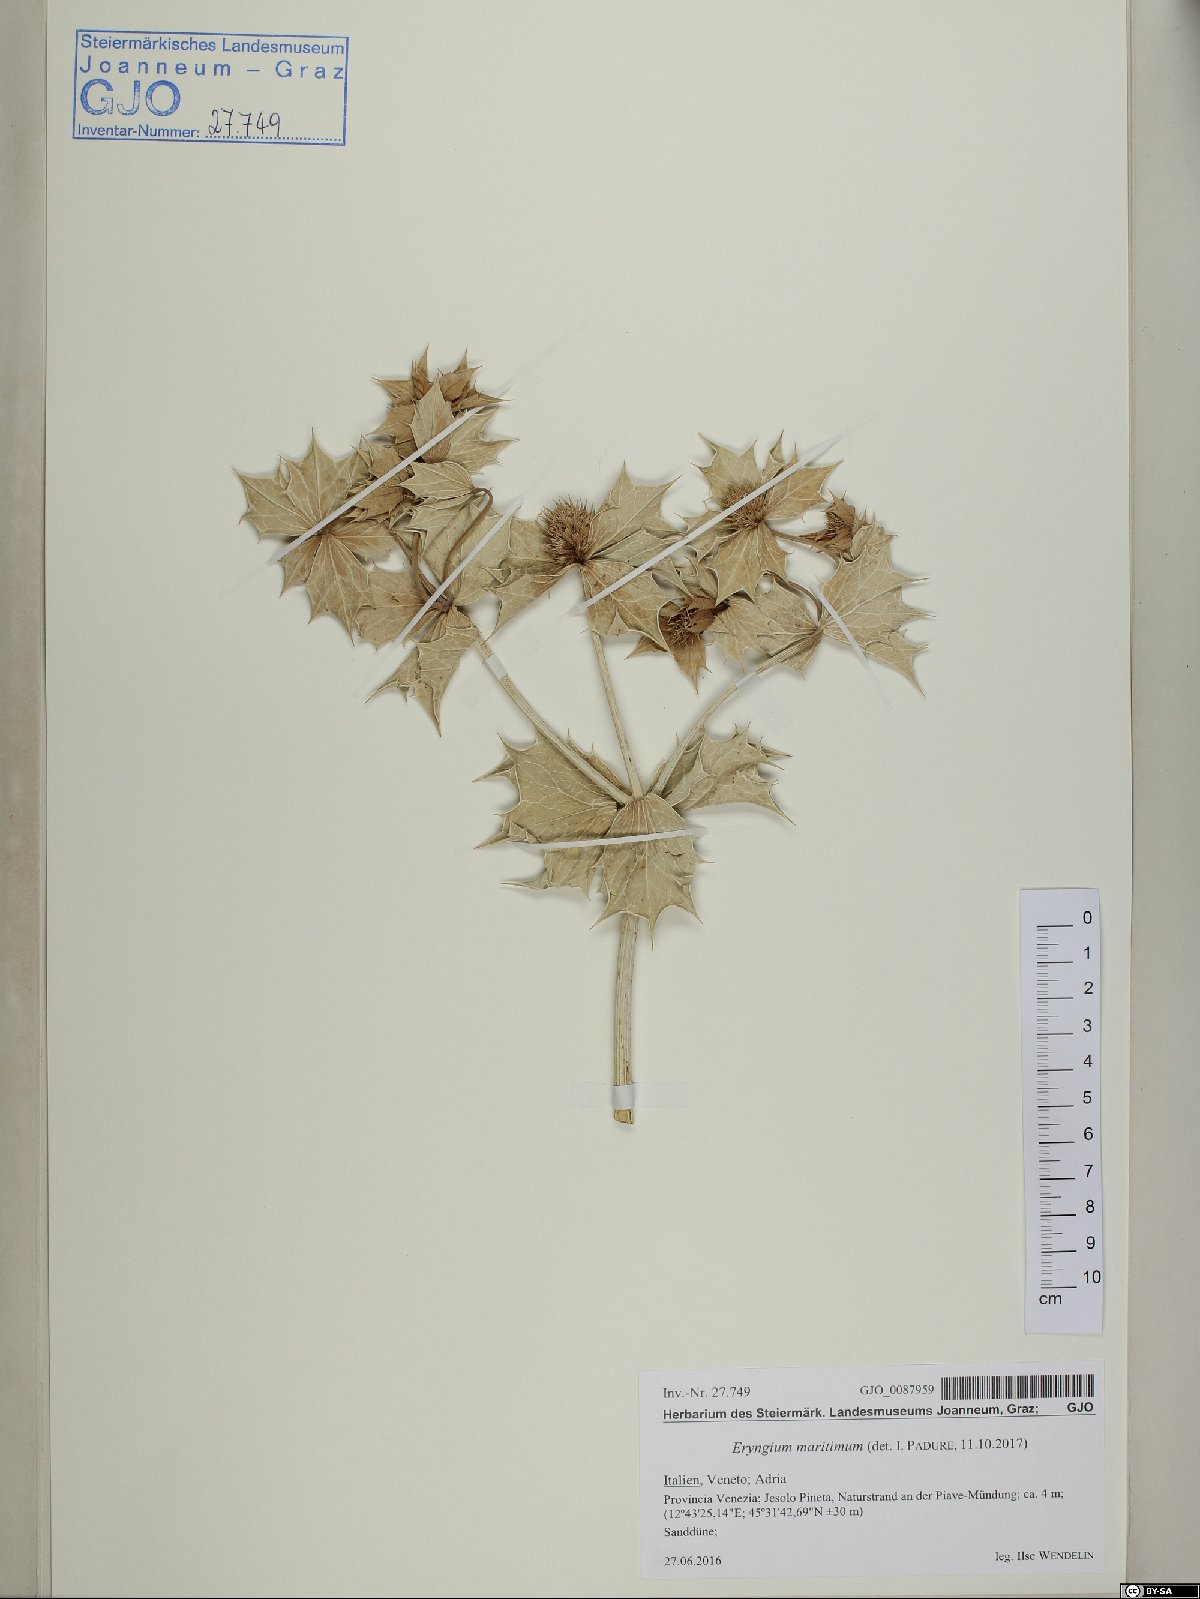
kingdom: Plantae
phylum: Tracheophyta
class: Magnoliopsida
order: Apiales
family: Apiaceae
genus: Eryngium
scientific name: Eryngium maritimum
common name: Sea-holly
